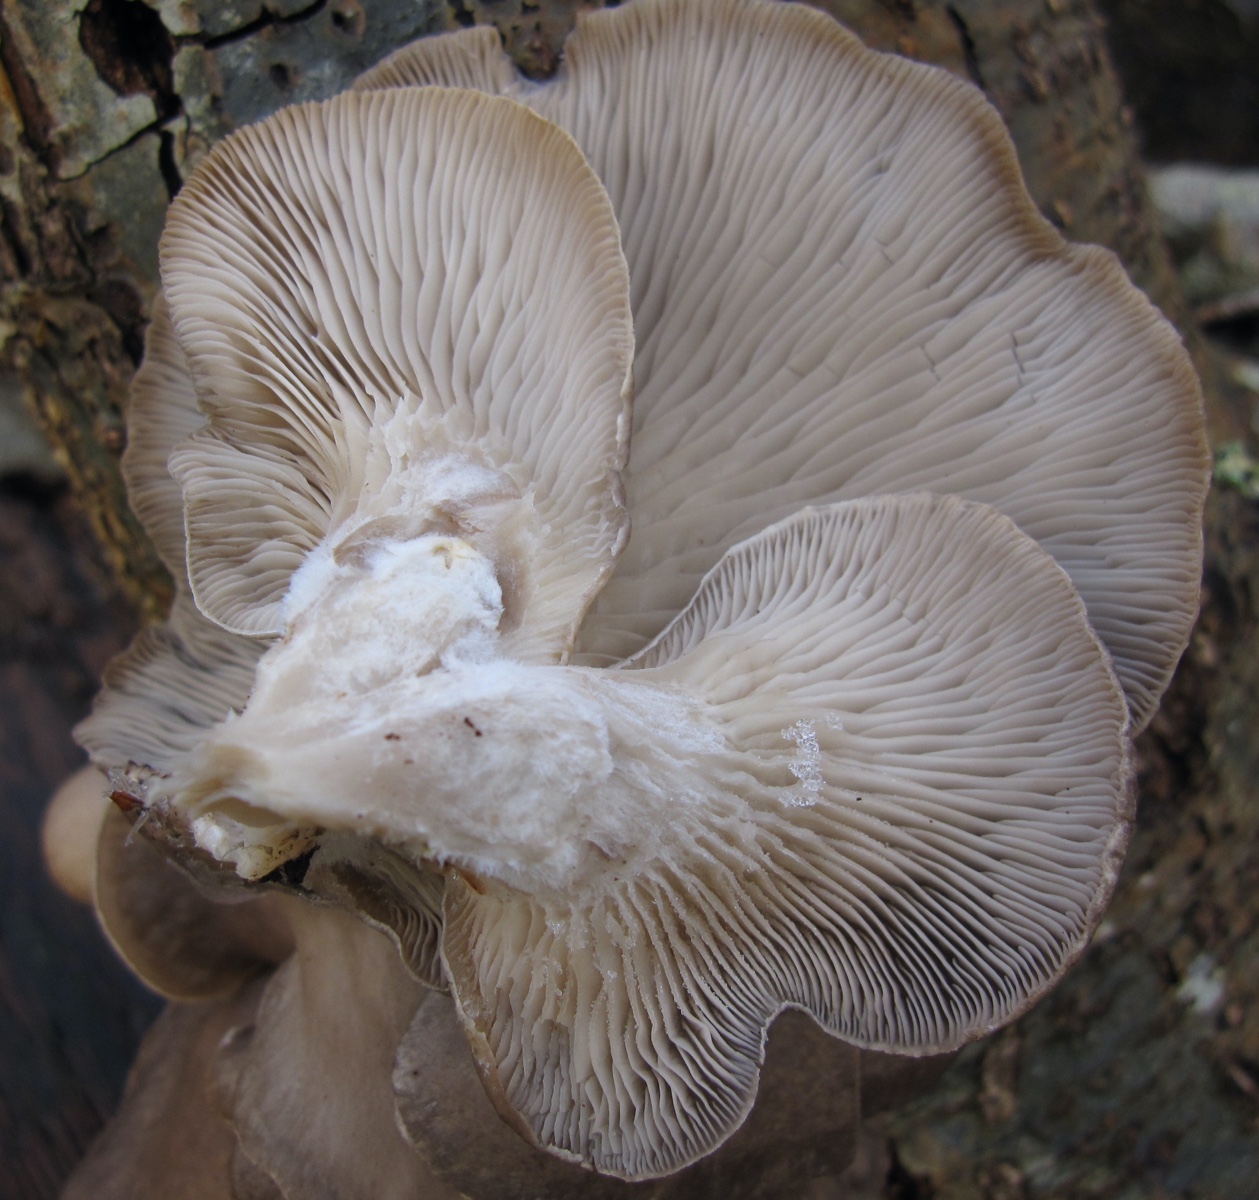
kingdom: Fungi
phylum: Basidiomycota
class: Agaricomycetes
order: Agaricales
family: Pleurotaceae
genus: Pleurotus
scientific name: Pleurotus ostreatus
